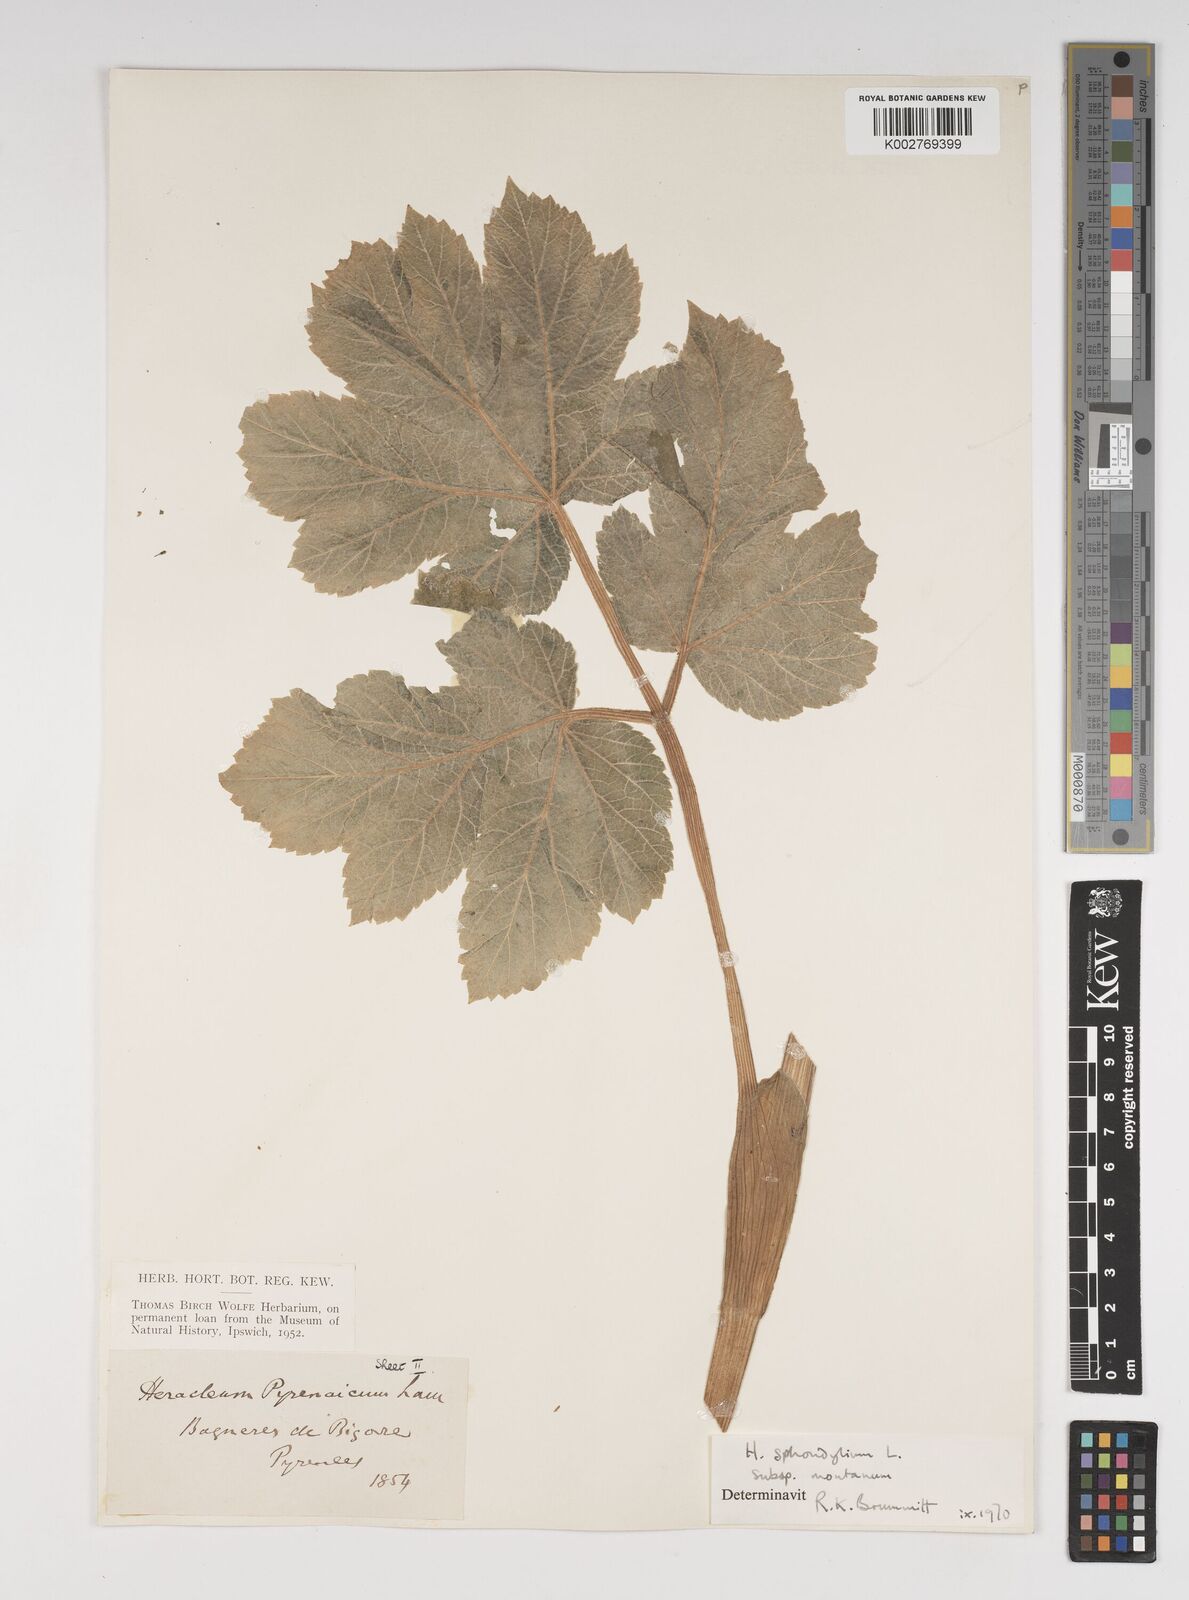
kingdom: Plantae
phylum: Tracheophyta
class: Magnoliopsida
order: Apiales
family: Apiaceae
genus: Heracleum
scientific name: Heracleum sphondylium
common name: Hogweed
